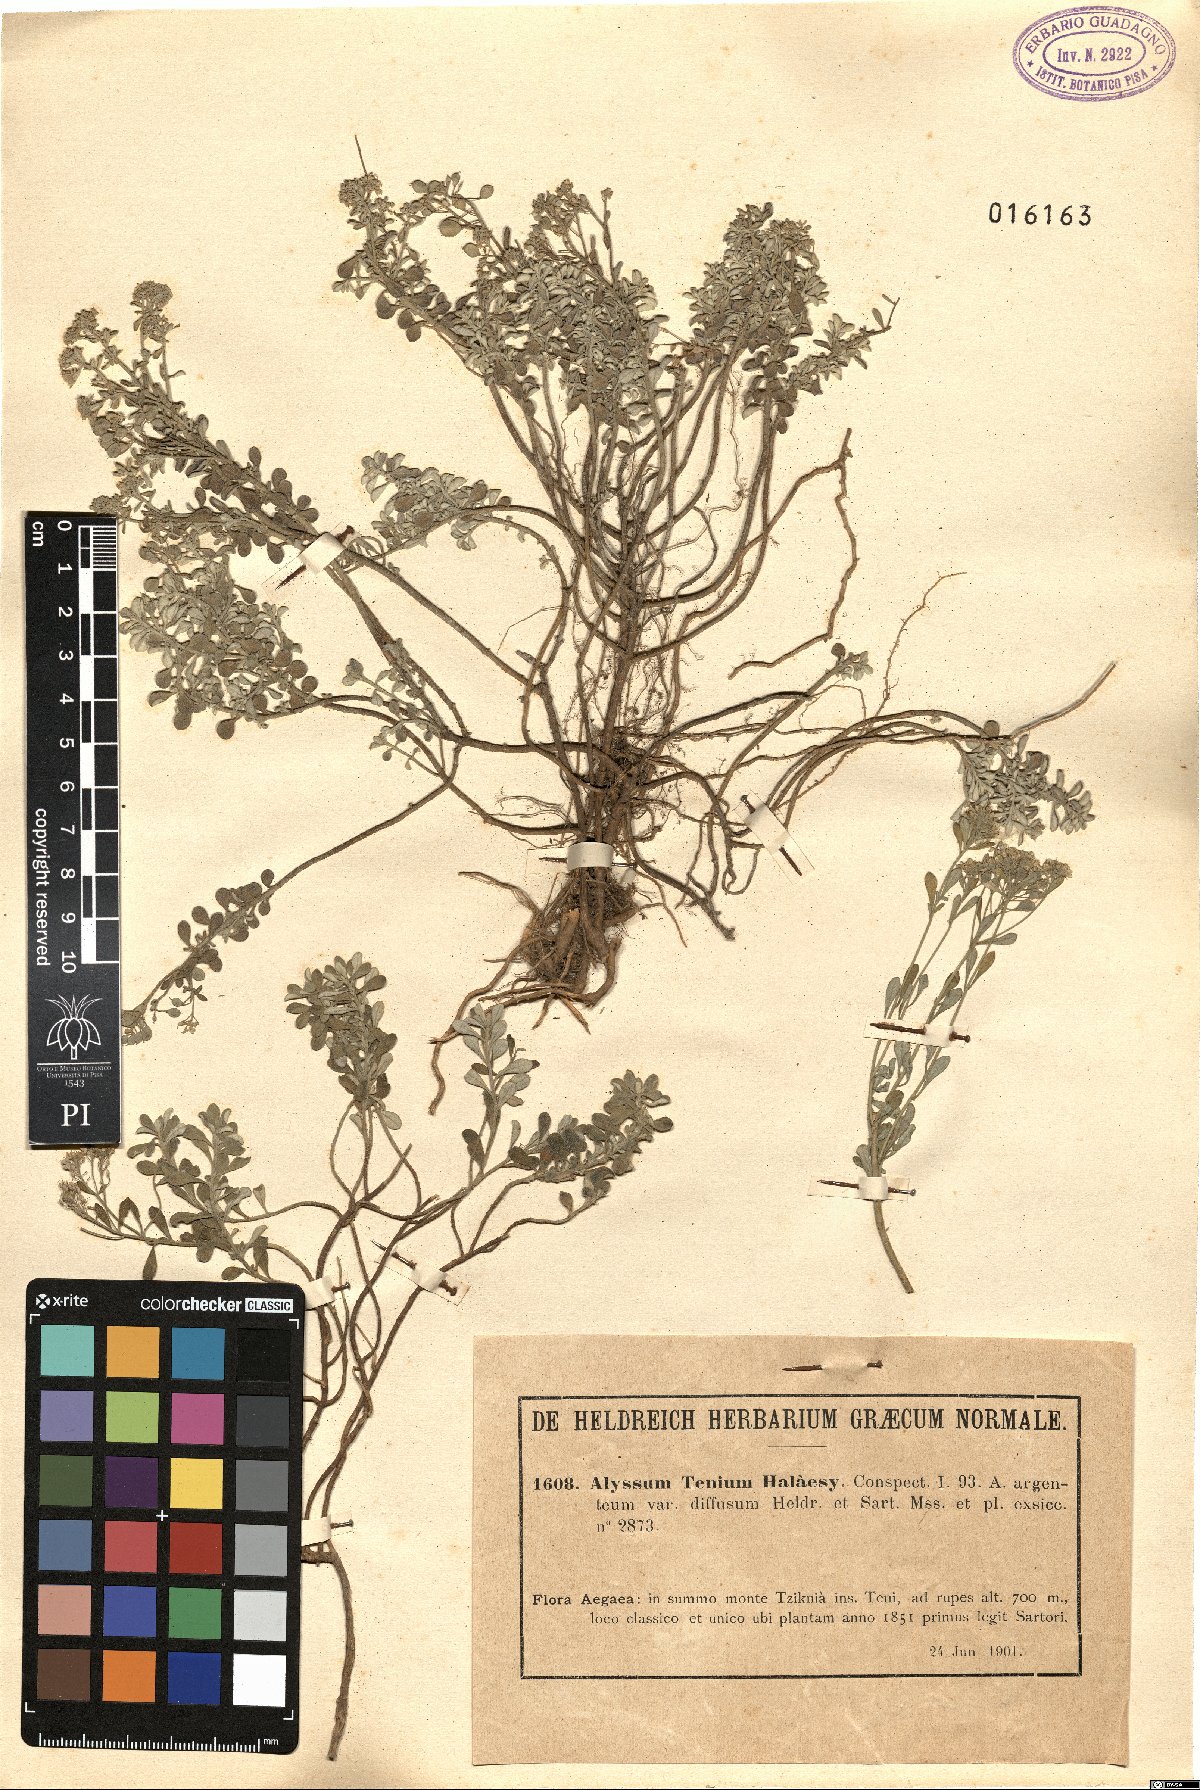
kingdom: Plantae
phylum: Tracheophyta
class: Magnoliopsida
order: Brassicales
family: Brassicaceae
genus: Alyssum
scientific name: Alyssum tenium
